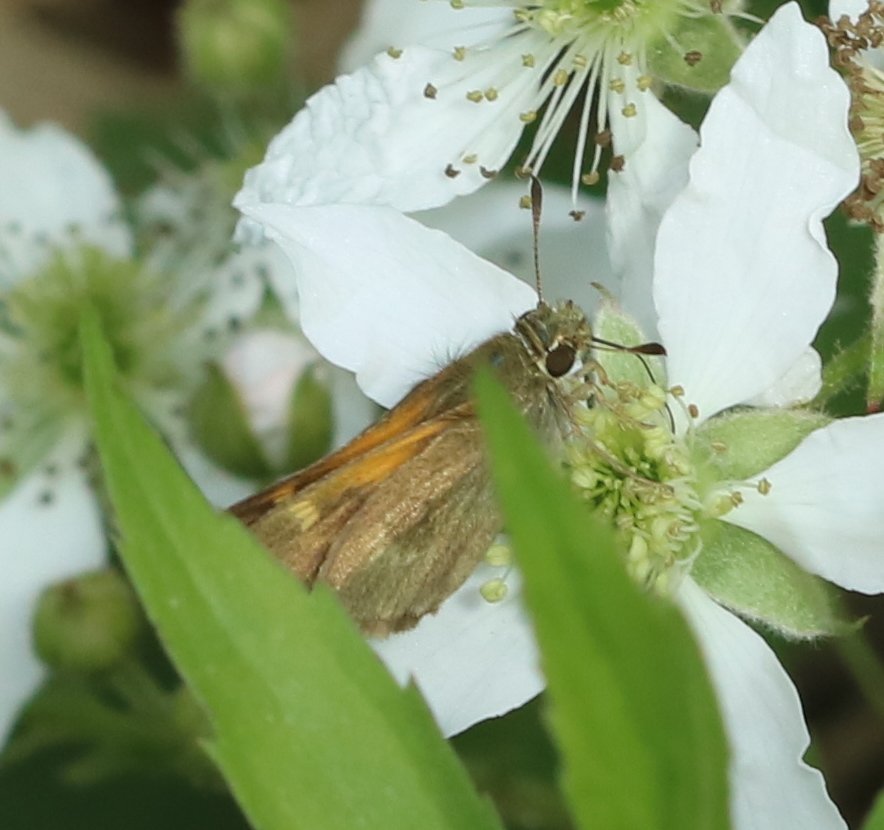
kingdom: Animalia
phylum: Arthropoda
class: Insecta
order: Lepidoptera
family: Hesperiidae
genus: Polites
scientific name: Polites themistocles
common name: Tawny-edged Skipper
